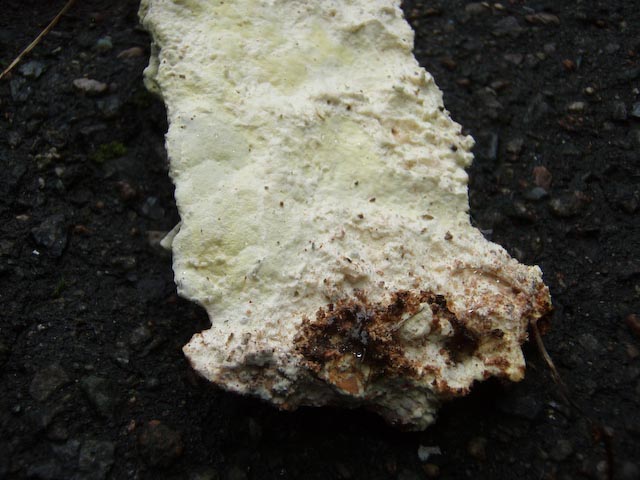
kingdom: Fungi
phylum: Basidiomycota
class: Agaricomycetes
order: Polyporales
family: Fomitopsidaceae
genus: Daedalea
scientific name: Daedalea xantha
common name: gul sejporesvamp
